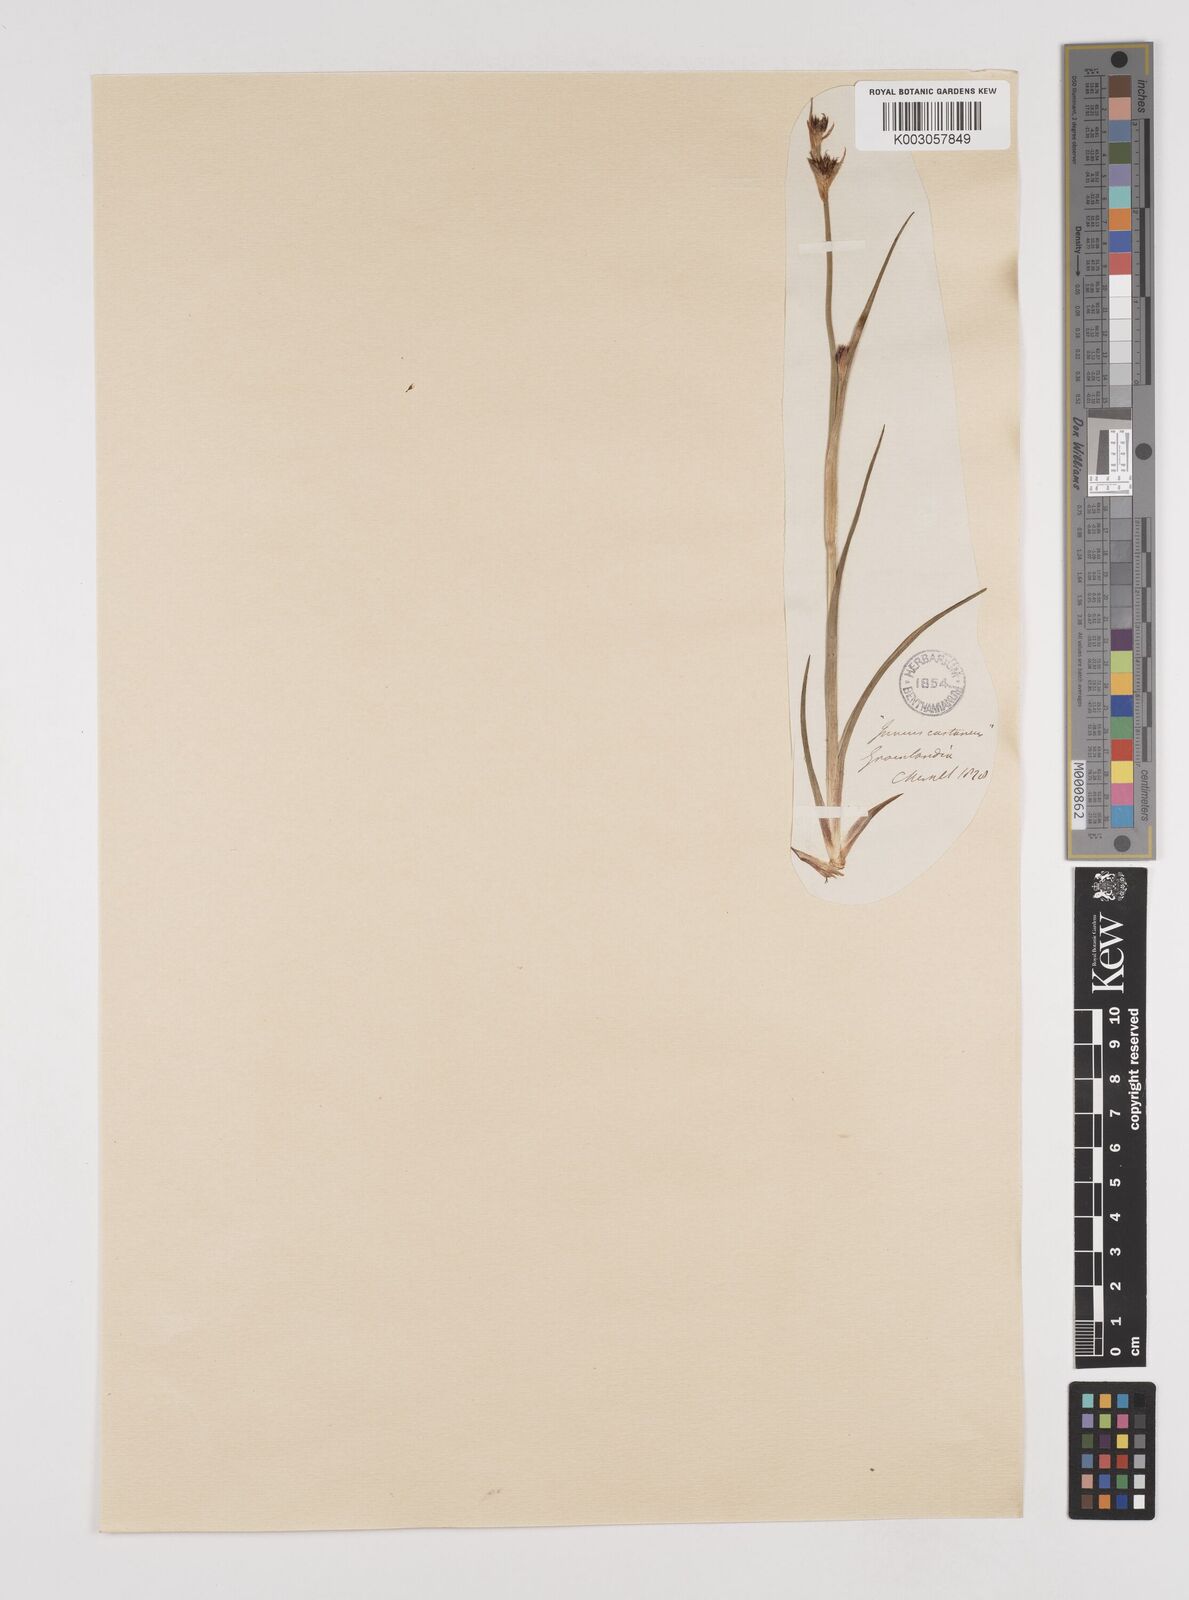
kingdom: Plantae
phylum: Tracheophyta
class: Liliopsida
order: Poales
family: Juncaceae
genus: Juncus
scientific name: Juncus castaneus
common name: Chestnut rush
